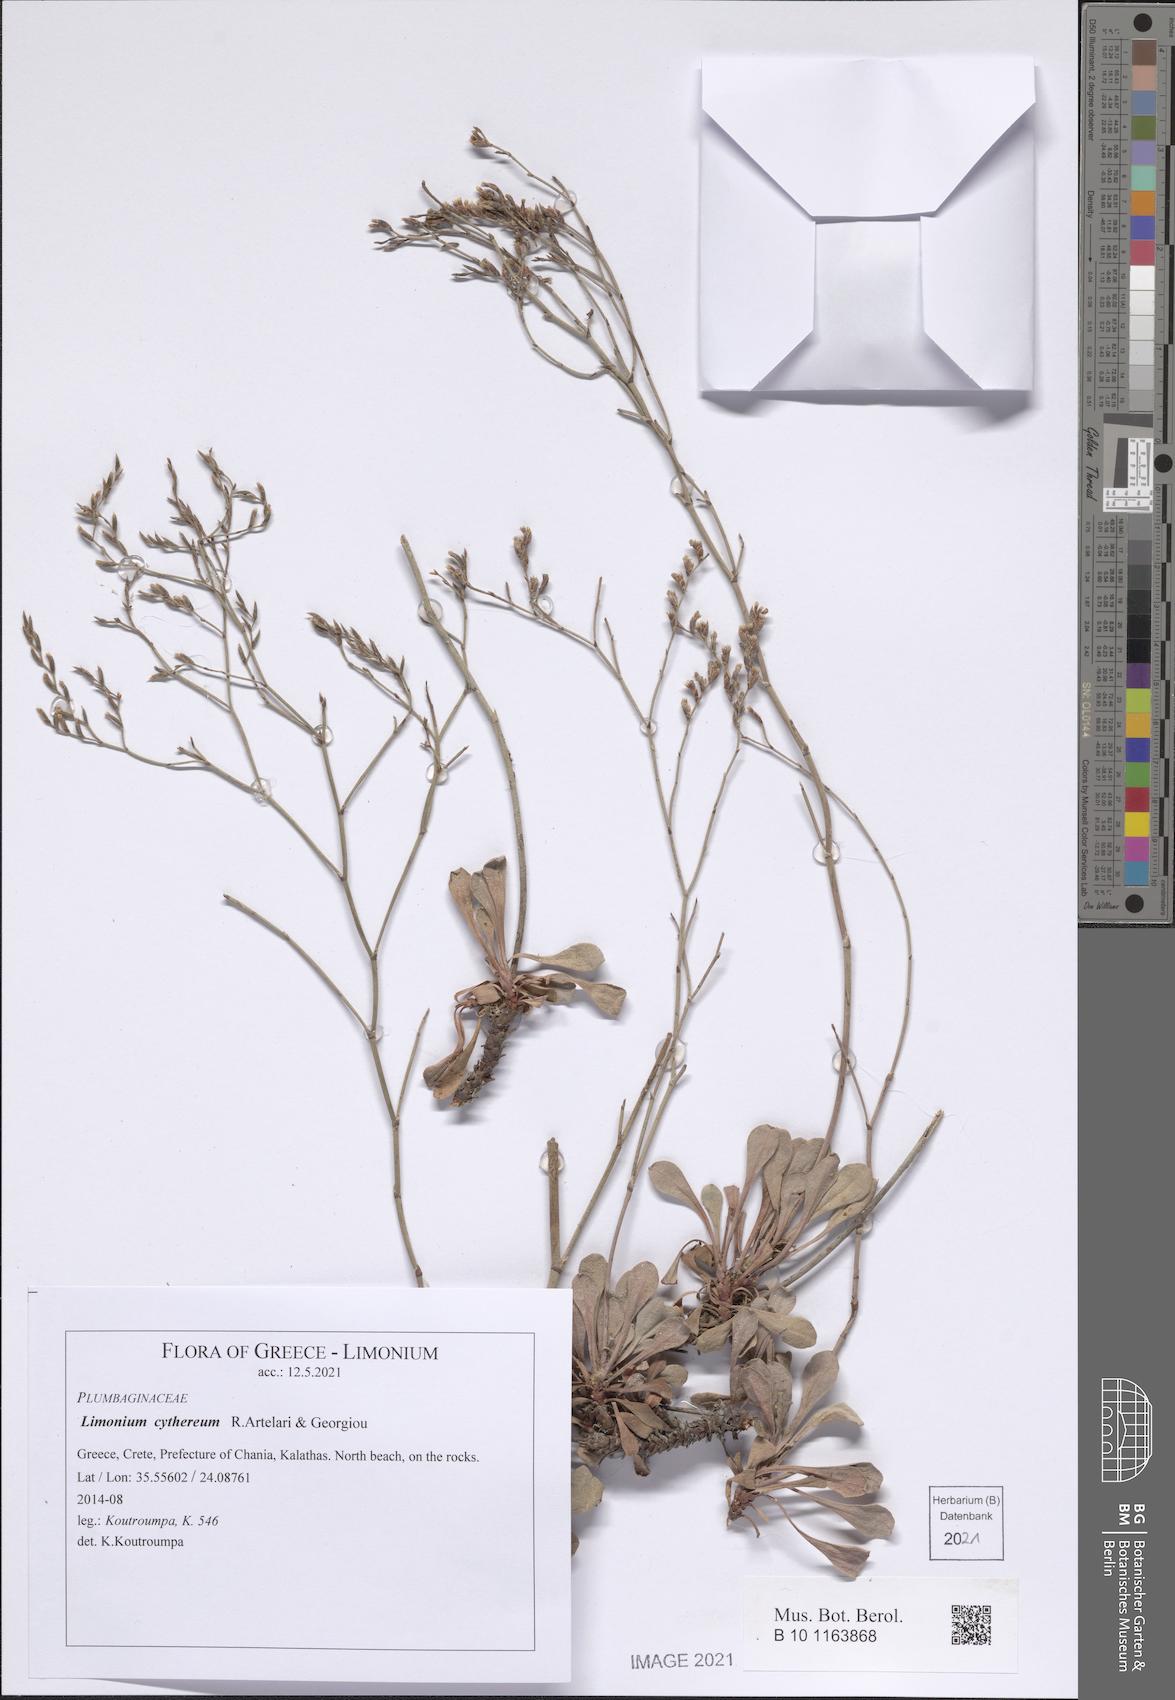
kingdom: Plantae
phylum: Tracheophyta
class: Magnoliopsida
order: Caryophyllales
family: Plumbaginaceae
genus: Limonium
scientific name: Limonium cythereum
